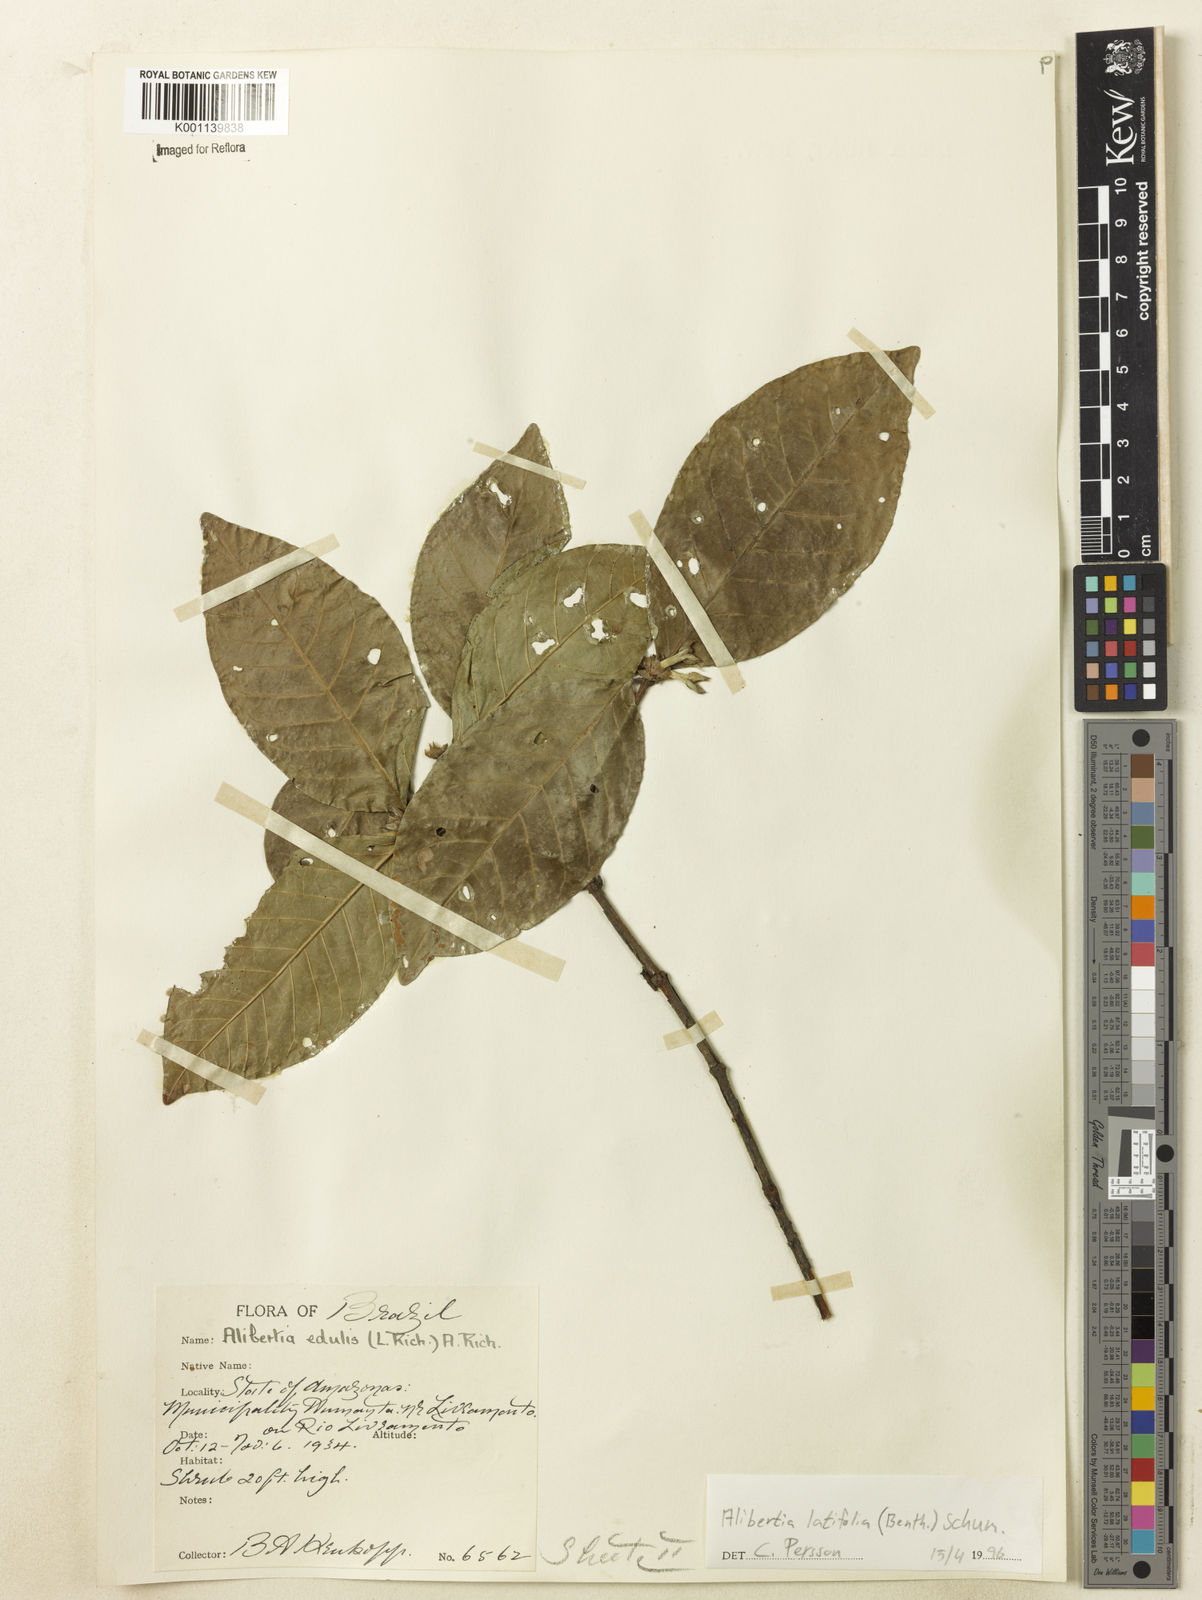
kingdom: Plantae
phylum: Tracheophyta
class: Magnoliopsida
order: Gentianales
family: Rubiaceae
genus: Alibertia
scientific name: Alibertia latifolia
